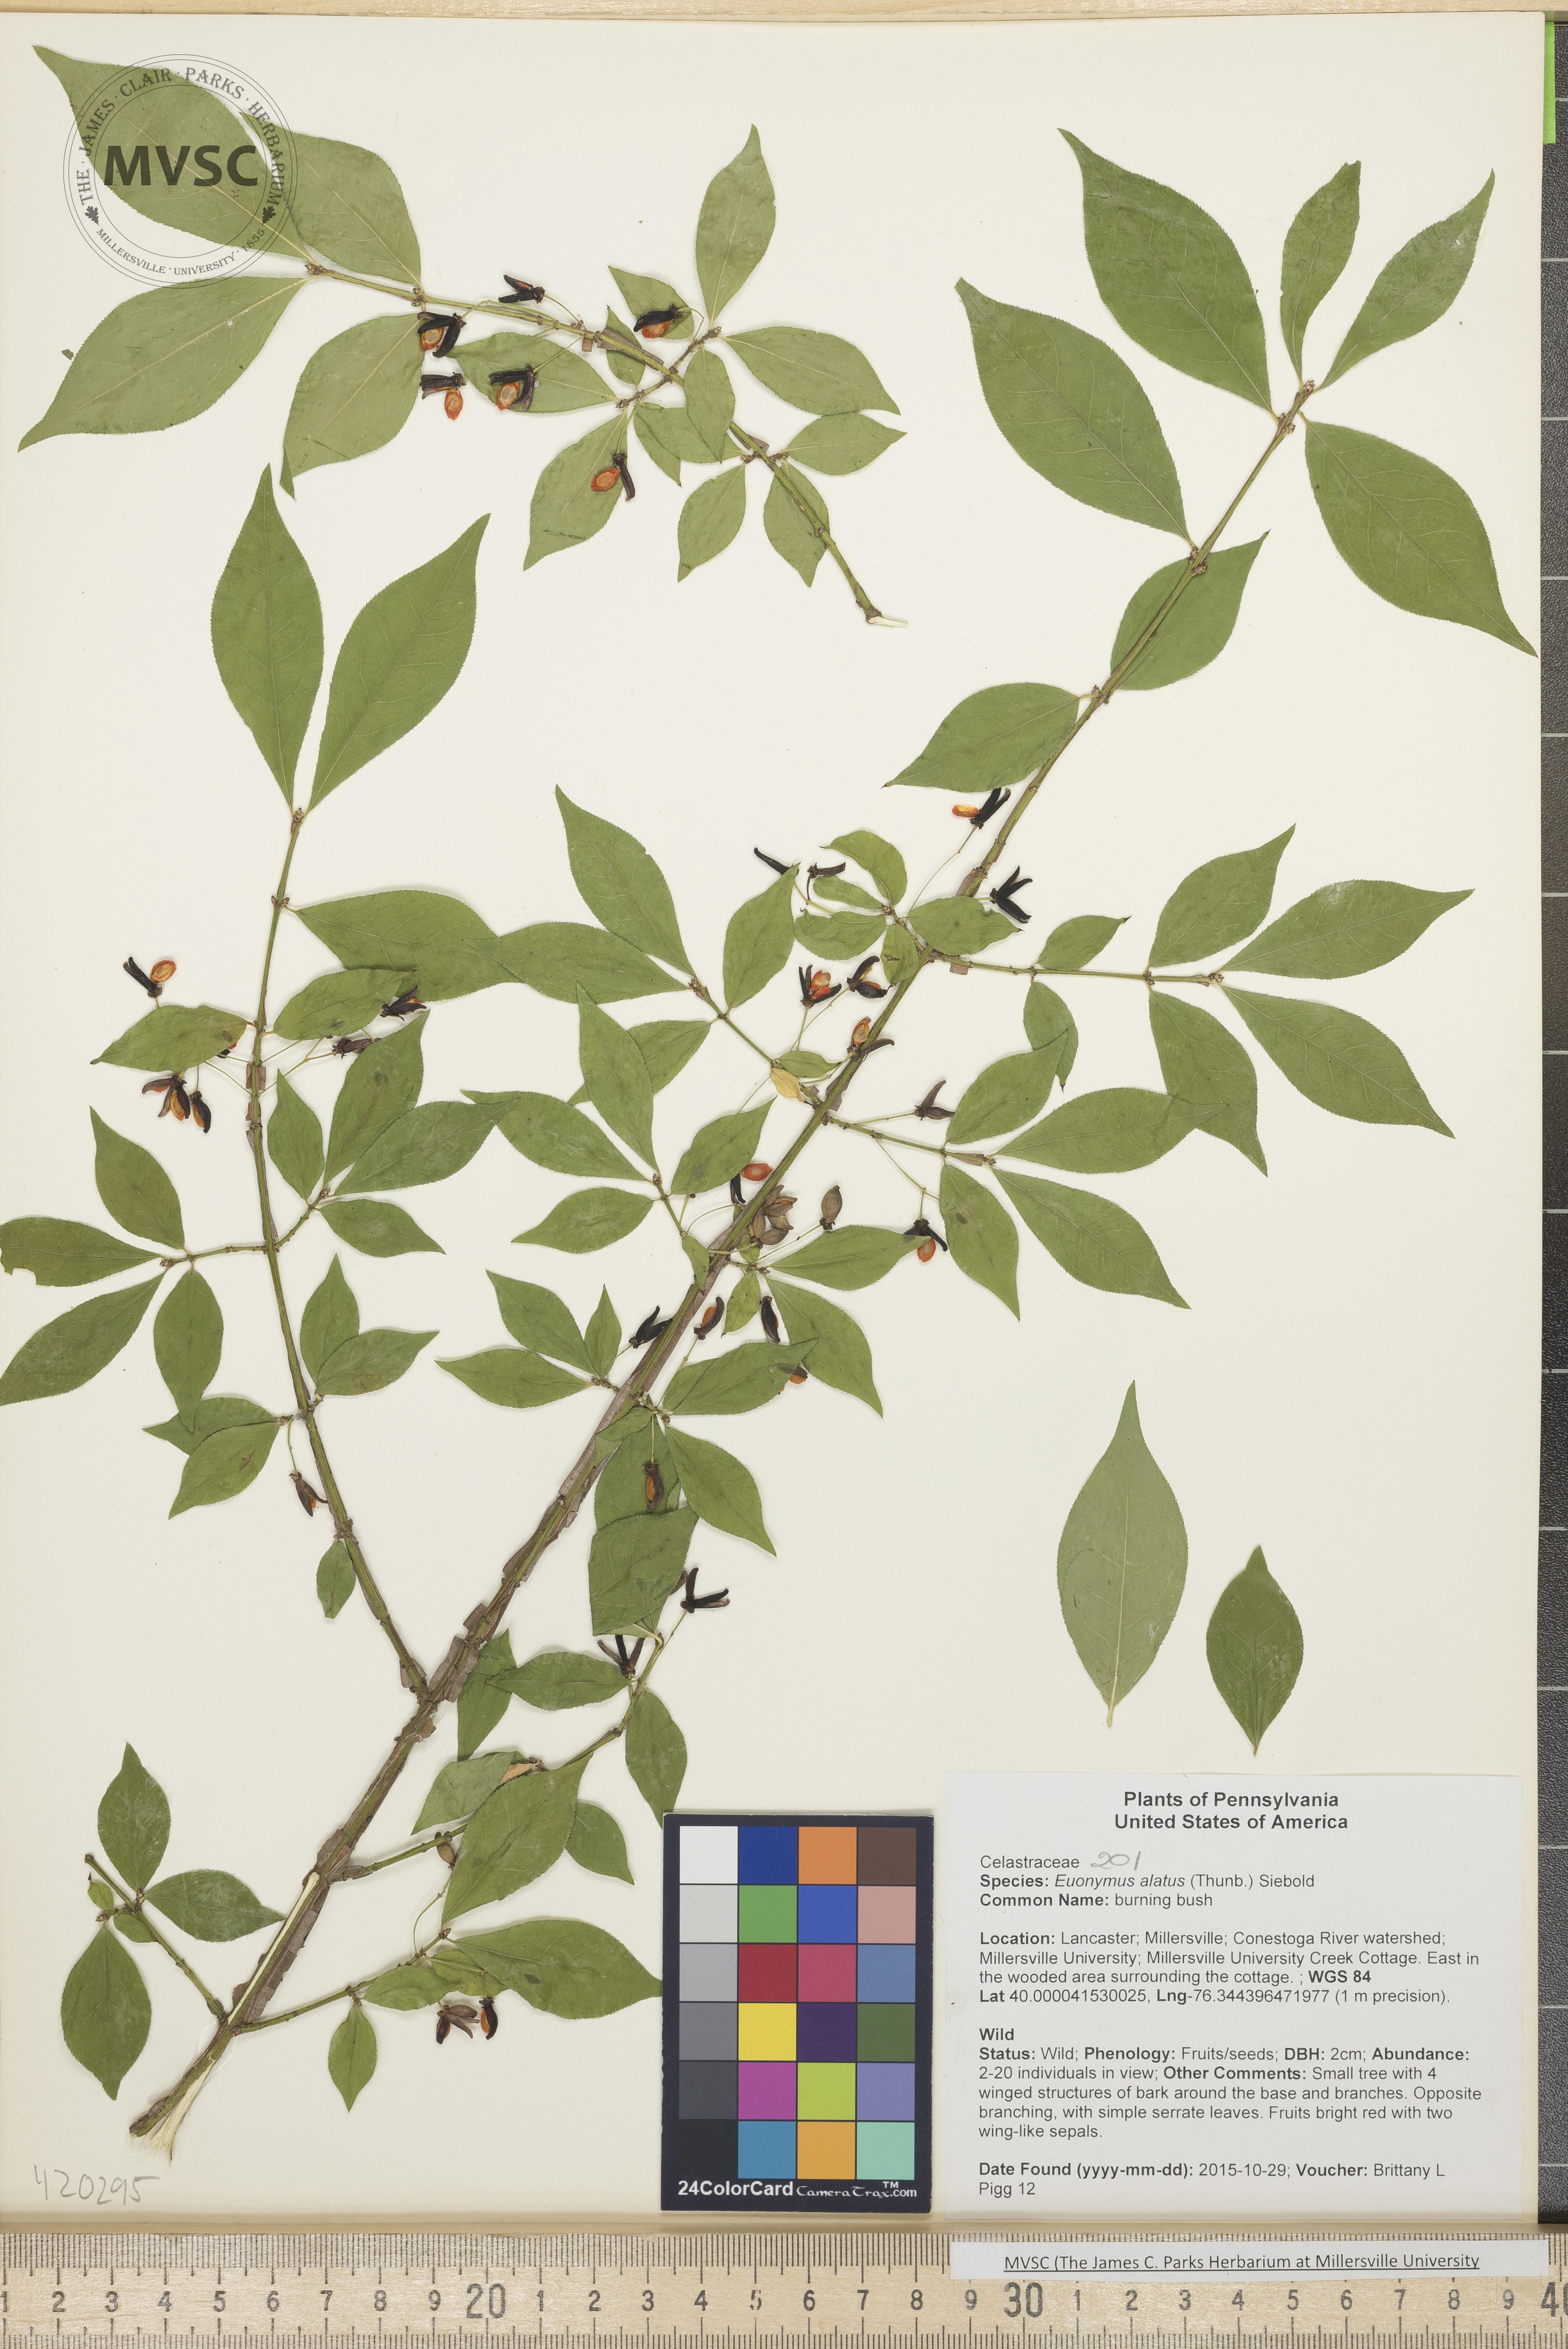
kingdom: Plantae
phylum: Tracheophyta
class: Magnoliopsida
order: Celastrales
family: Celastraceae
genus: Euonymus
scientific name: Euonymus alatus
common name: burning bush
